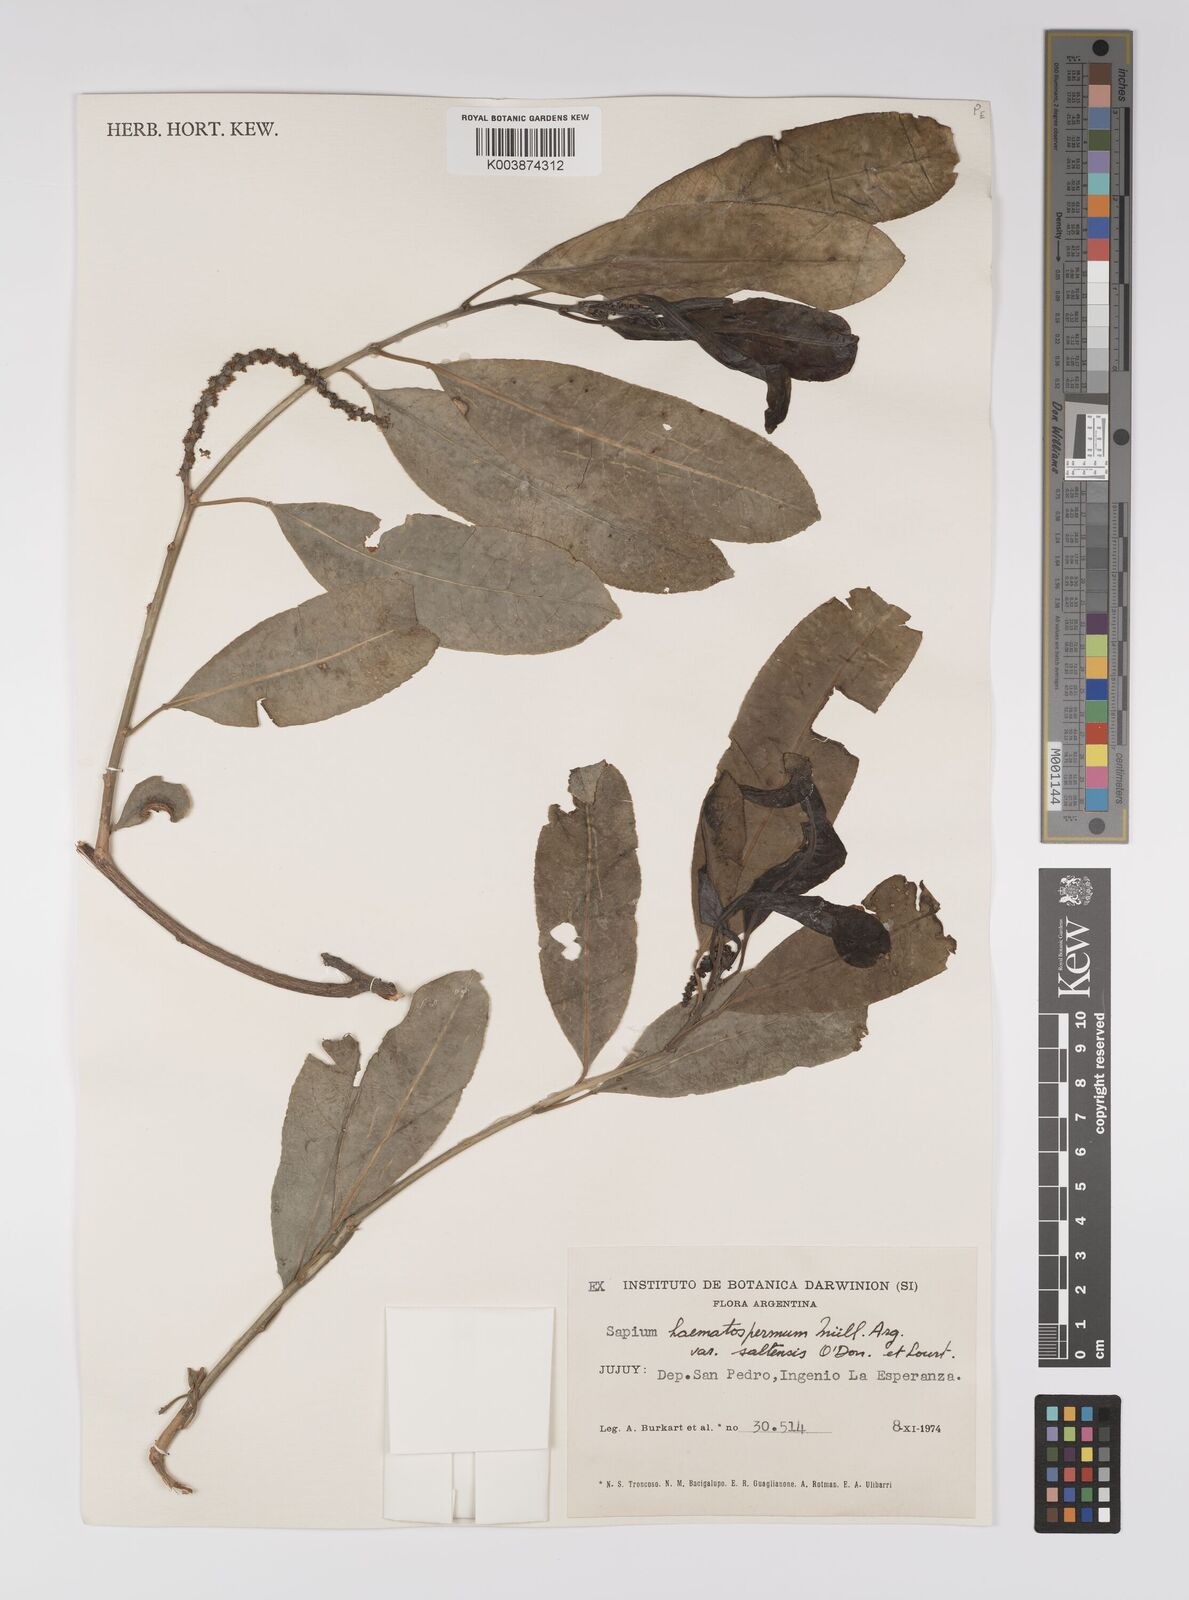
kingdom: Plantae
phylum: Tracheophyta
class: Magnoliopsida
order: Malpighiales
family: Euphorbiaceae
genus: Sapium
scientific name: Sapium glandulosum
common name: Milktree
